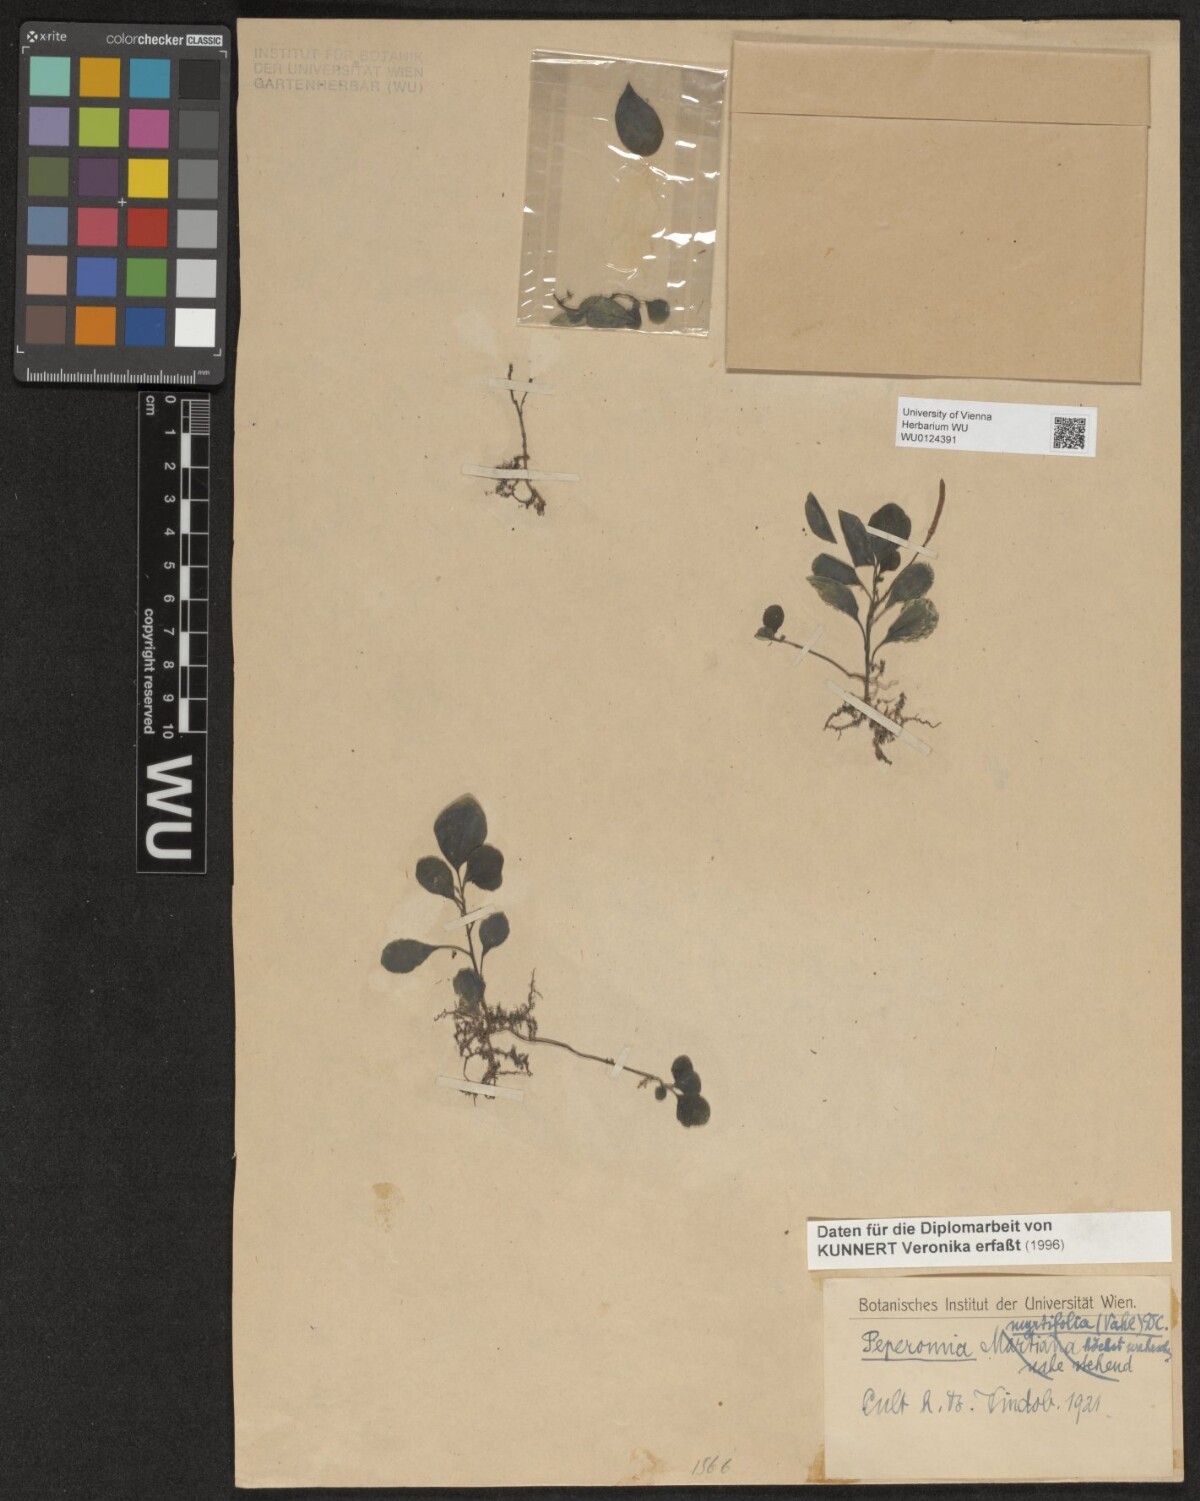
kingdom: Plantae
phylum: Tracheophyta
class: Magnoliopsida
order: Piperales
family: Piperaceae
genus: Peperomia
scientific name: Peperomia myrtifolia
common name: Myrtleleaf peperomia
